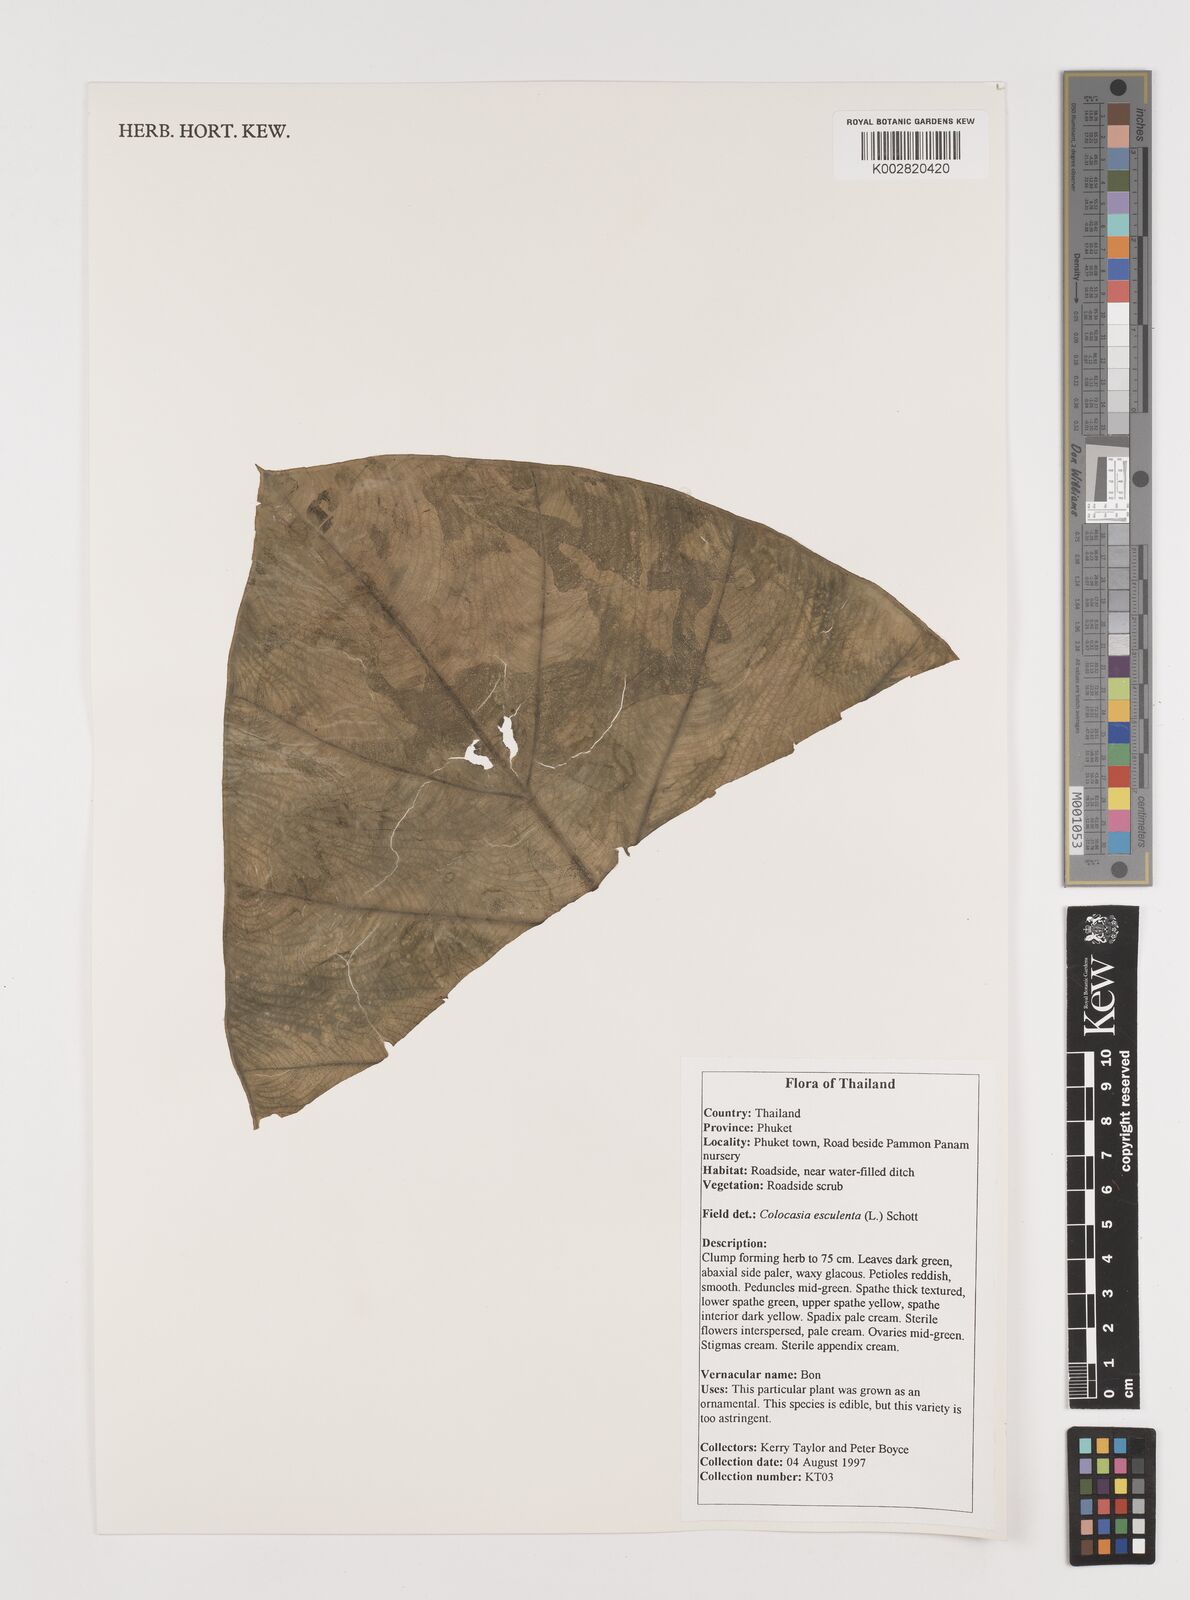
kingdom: Plantae
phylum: Tracheophyta
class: Liliopsida
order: Alismatales
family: Araceae
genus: Colocasia
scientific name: Colocasia esculenta
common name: Taro
